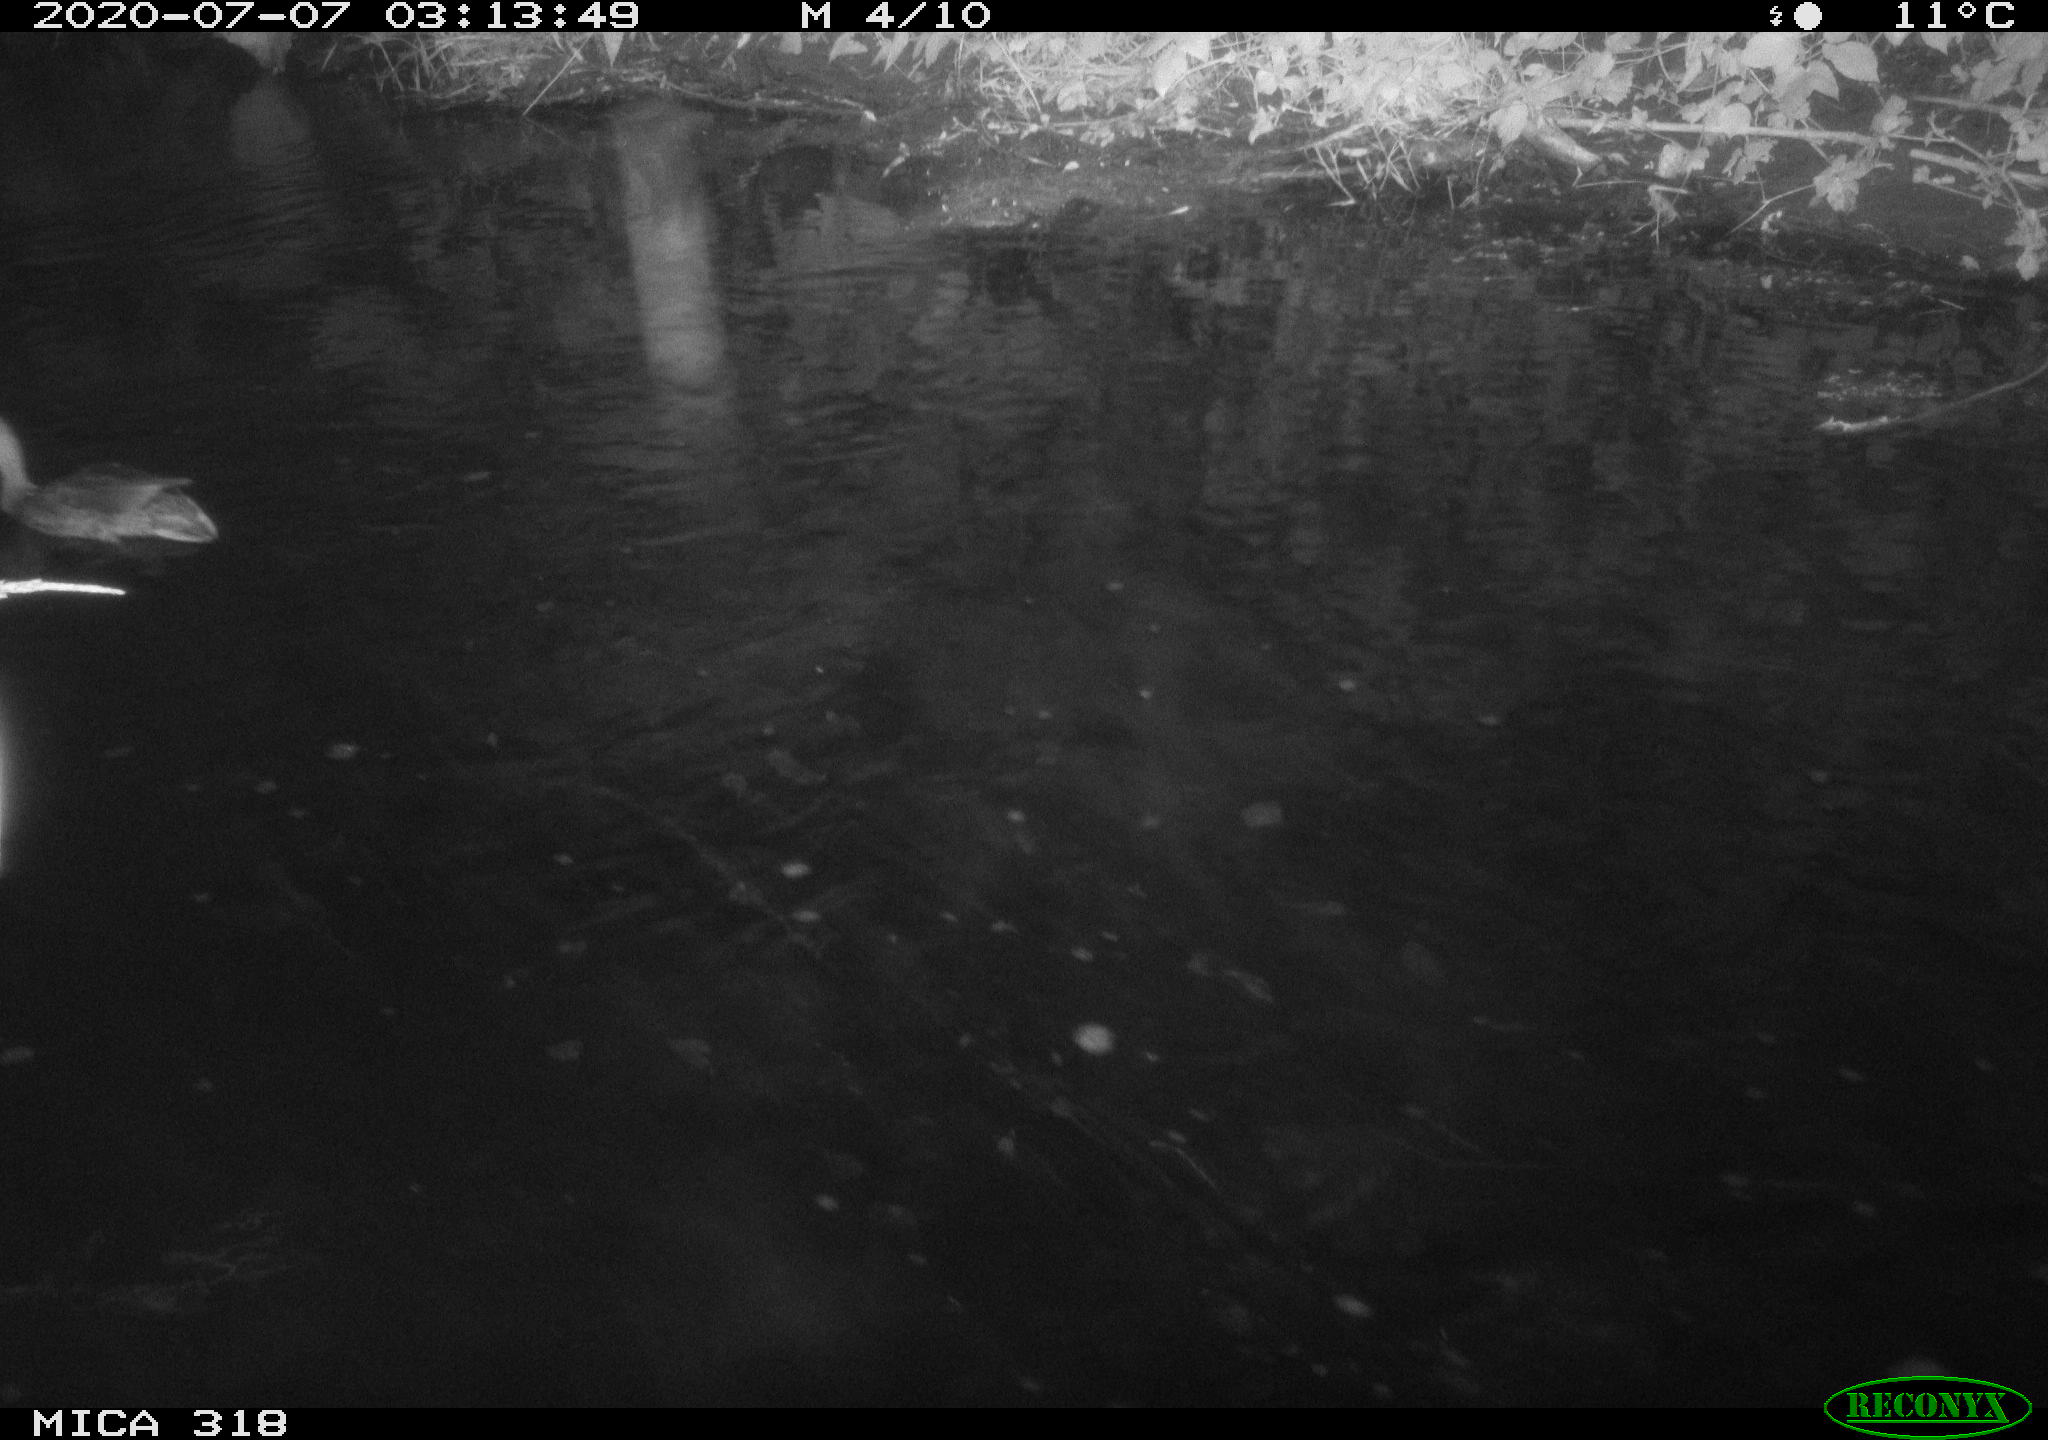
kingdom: Animalia
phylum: Chordata
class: Aves
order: Anseriformes
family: Anatidae
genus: Mareca
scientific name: Mareca strepera
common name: Gadwall
